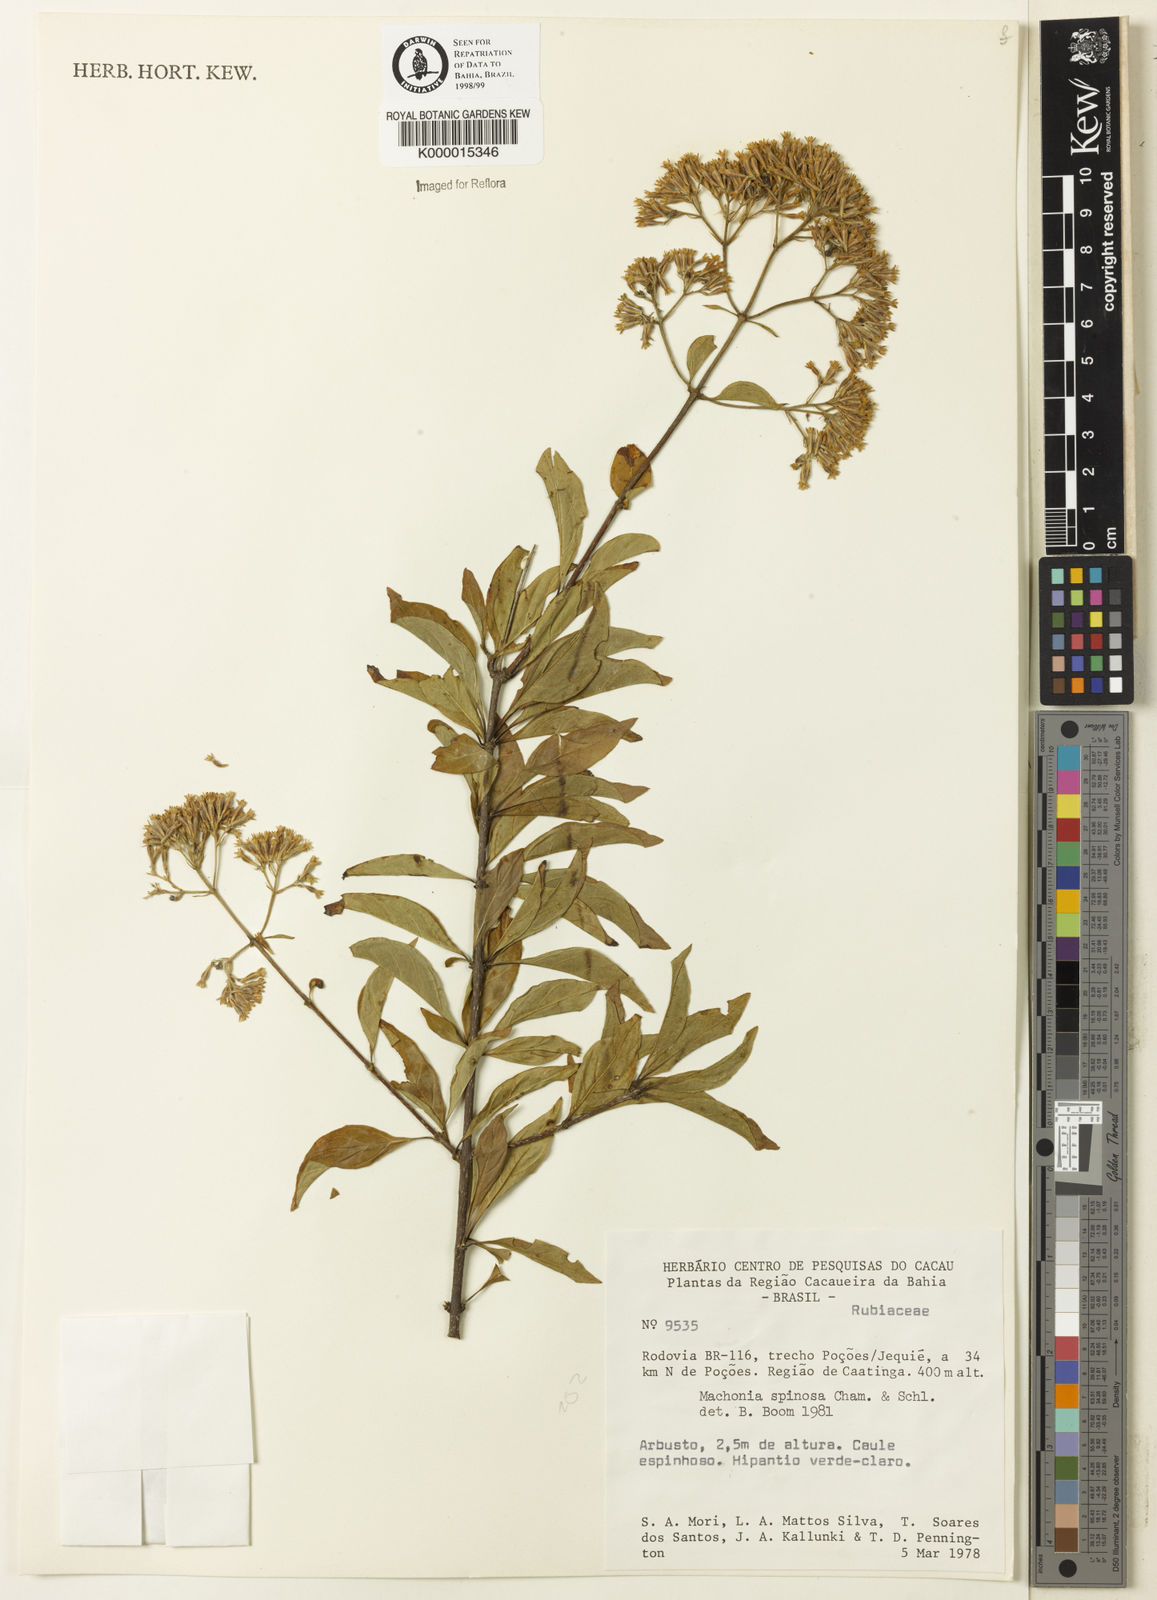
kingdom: Plantae
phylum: Tracheophyta
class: Magnoliopsida
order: Gentianales
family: Rubiaceae
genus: Machaonia
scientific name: Machaonia brasiliensis
